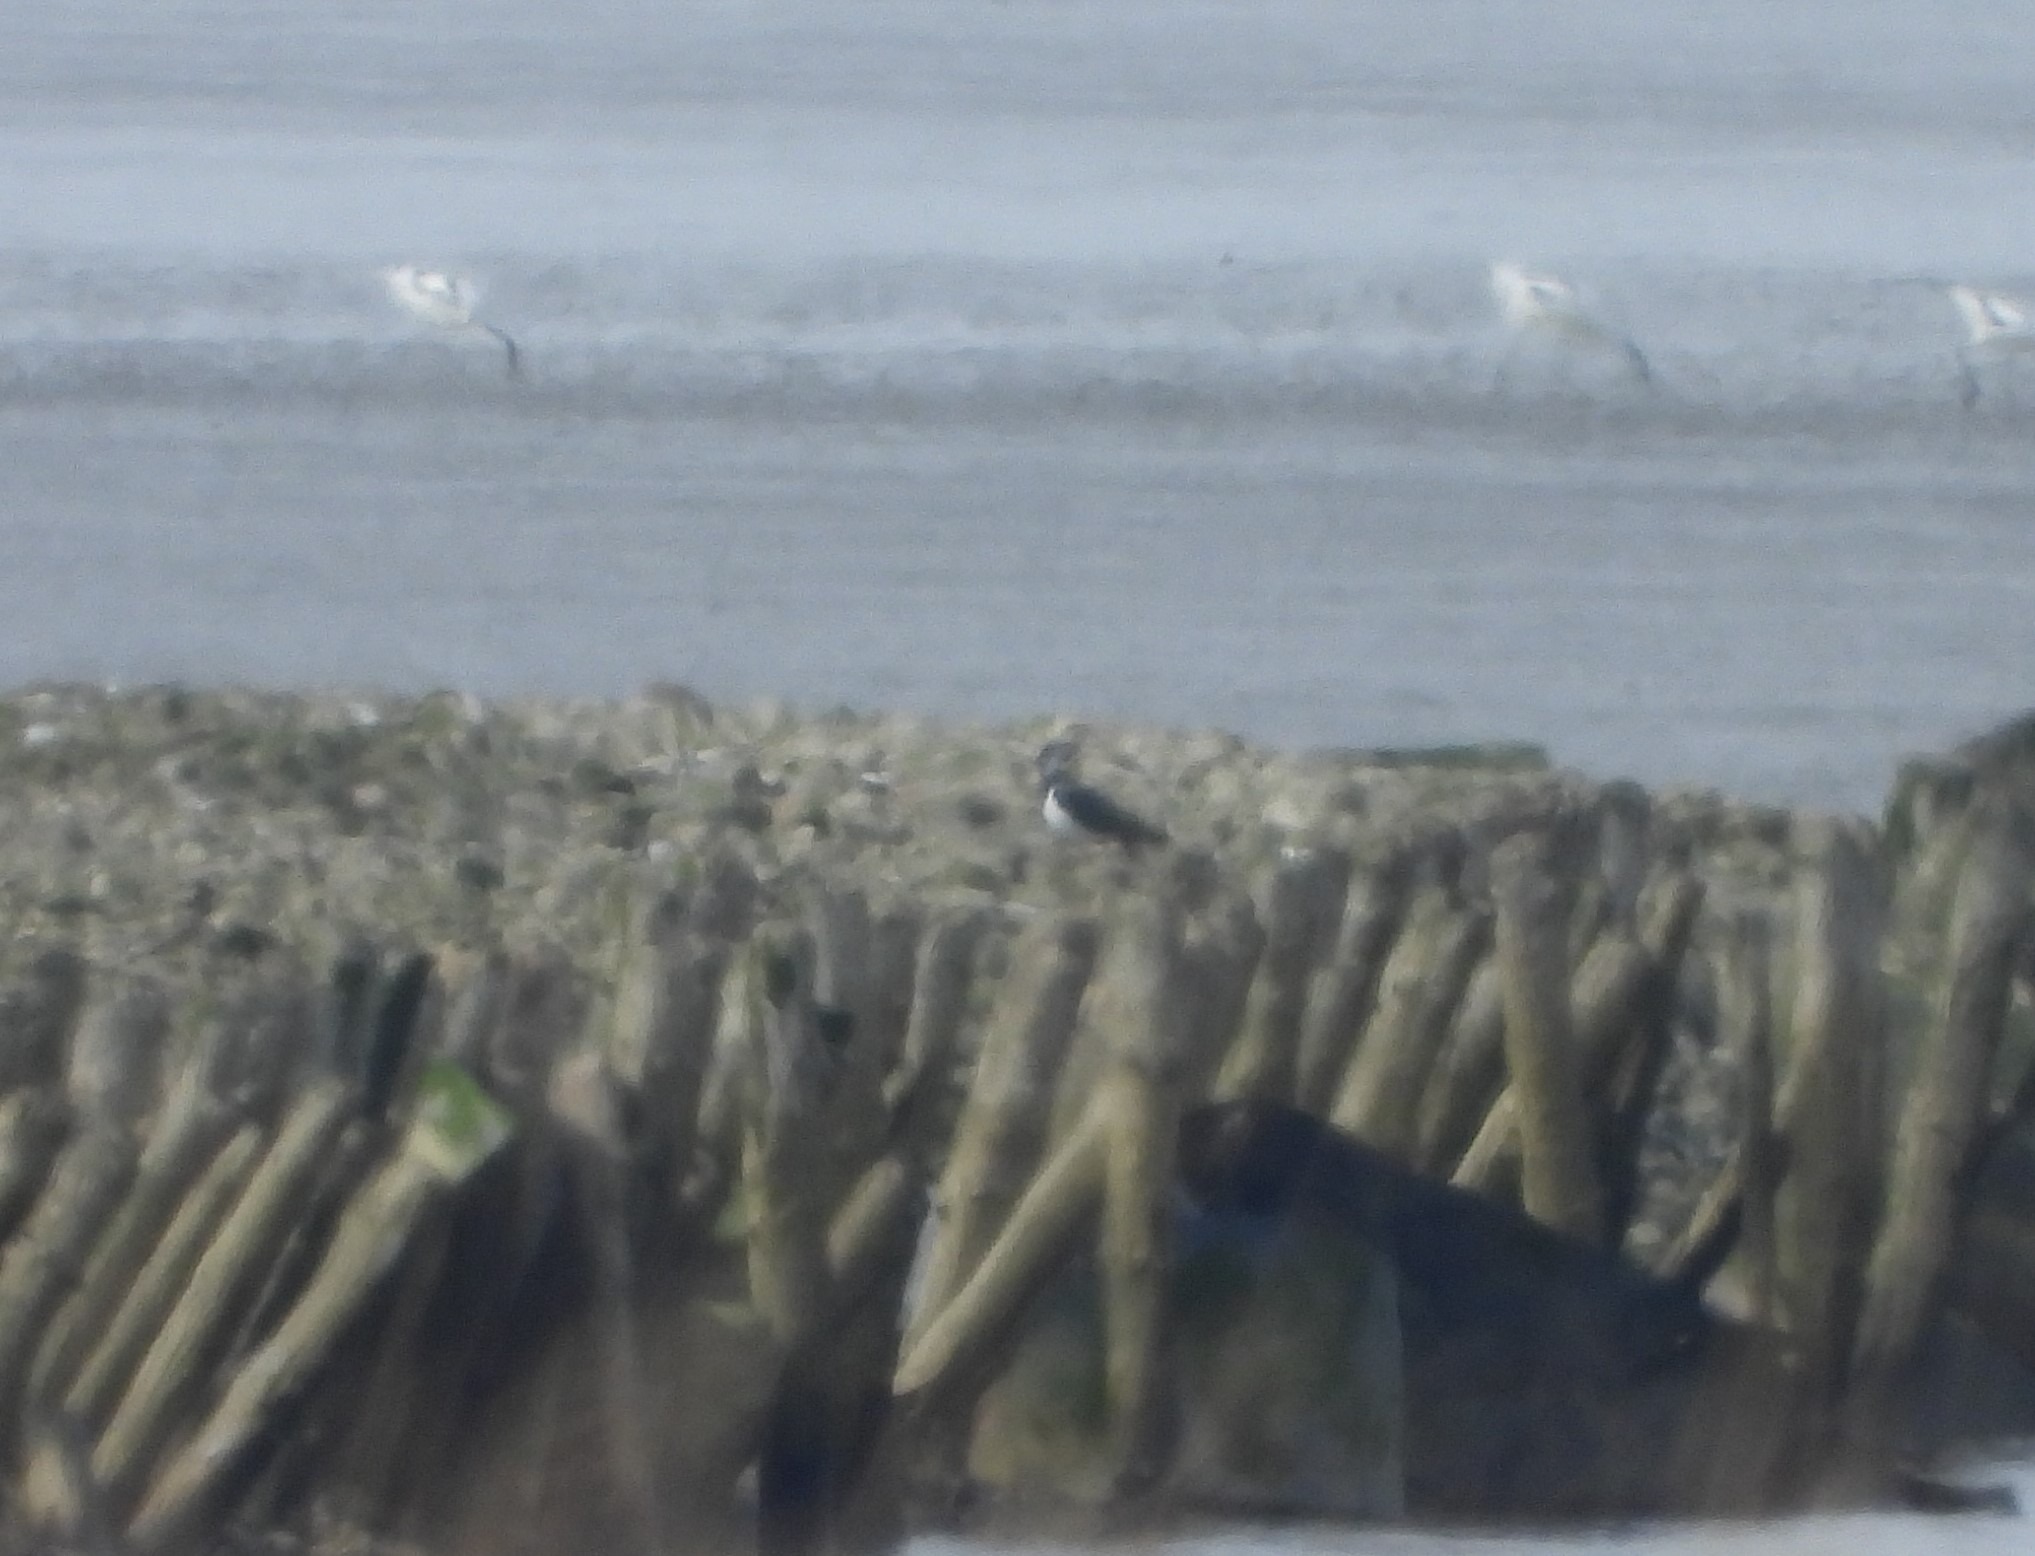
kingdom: Animalia
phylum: Chordata
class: Aves
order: Charadriiformes
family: Charadriidae
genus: Vanellus
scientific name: Vanellus vanellus
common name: Vibe
